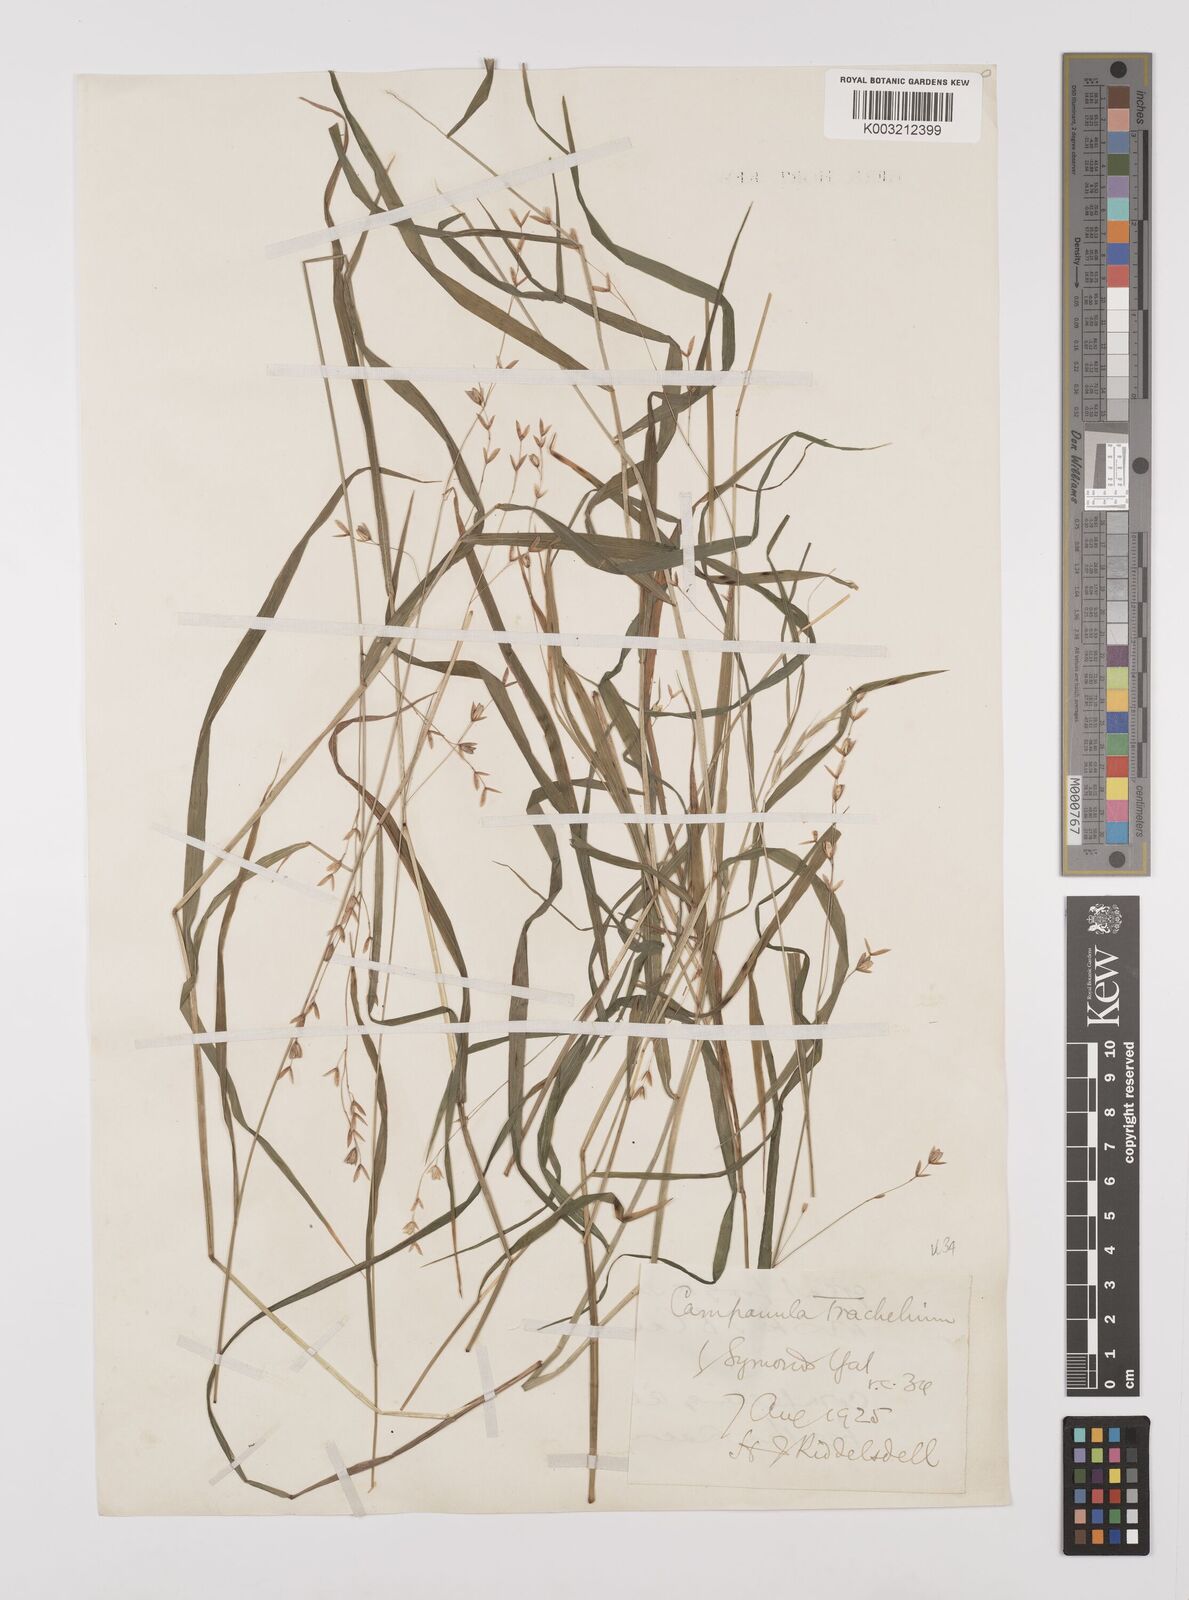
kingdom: Plantae
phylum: Tracheophyta
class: Liliopsida
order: Poales
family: Poaceae
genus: Melica
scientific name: Melica uniflora
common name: Wood melick
